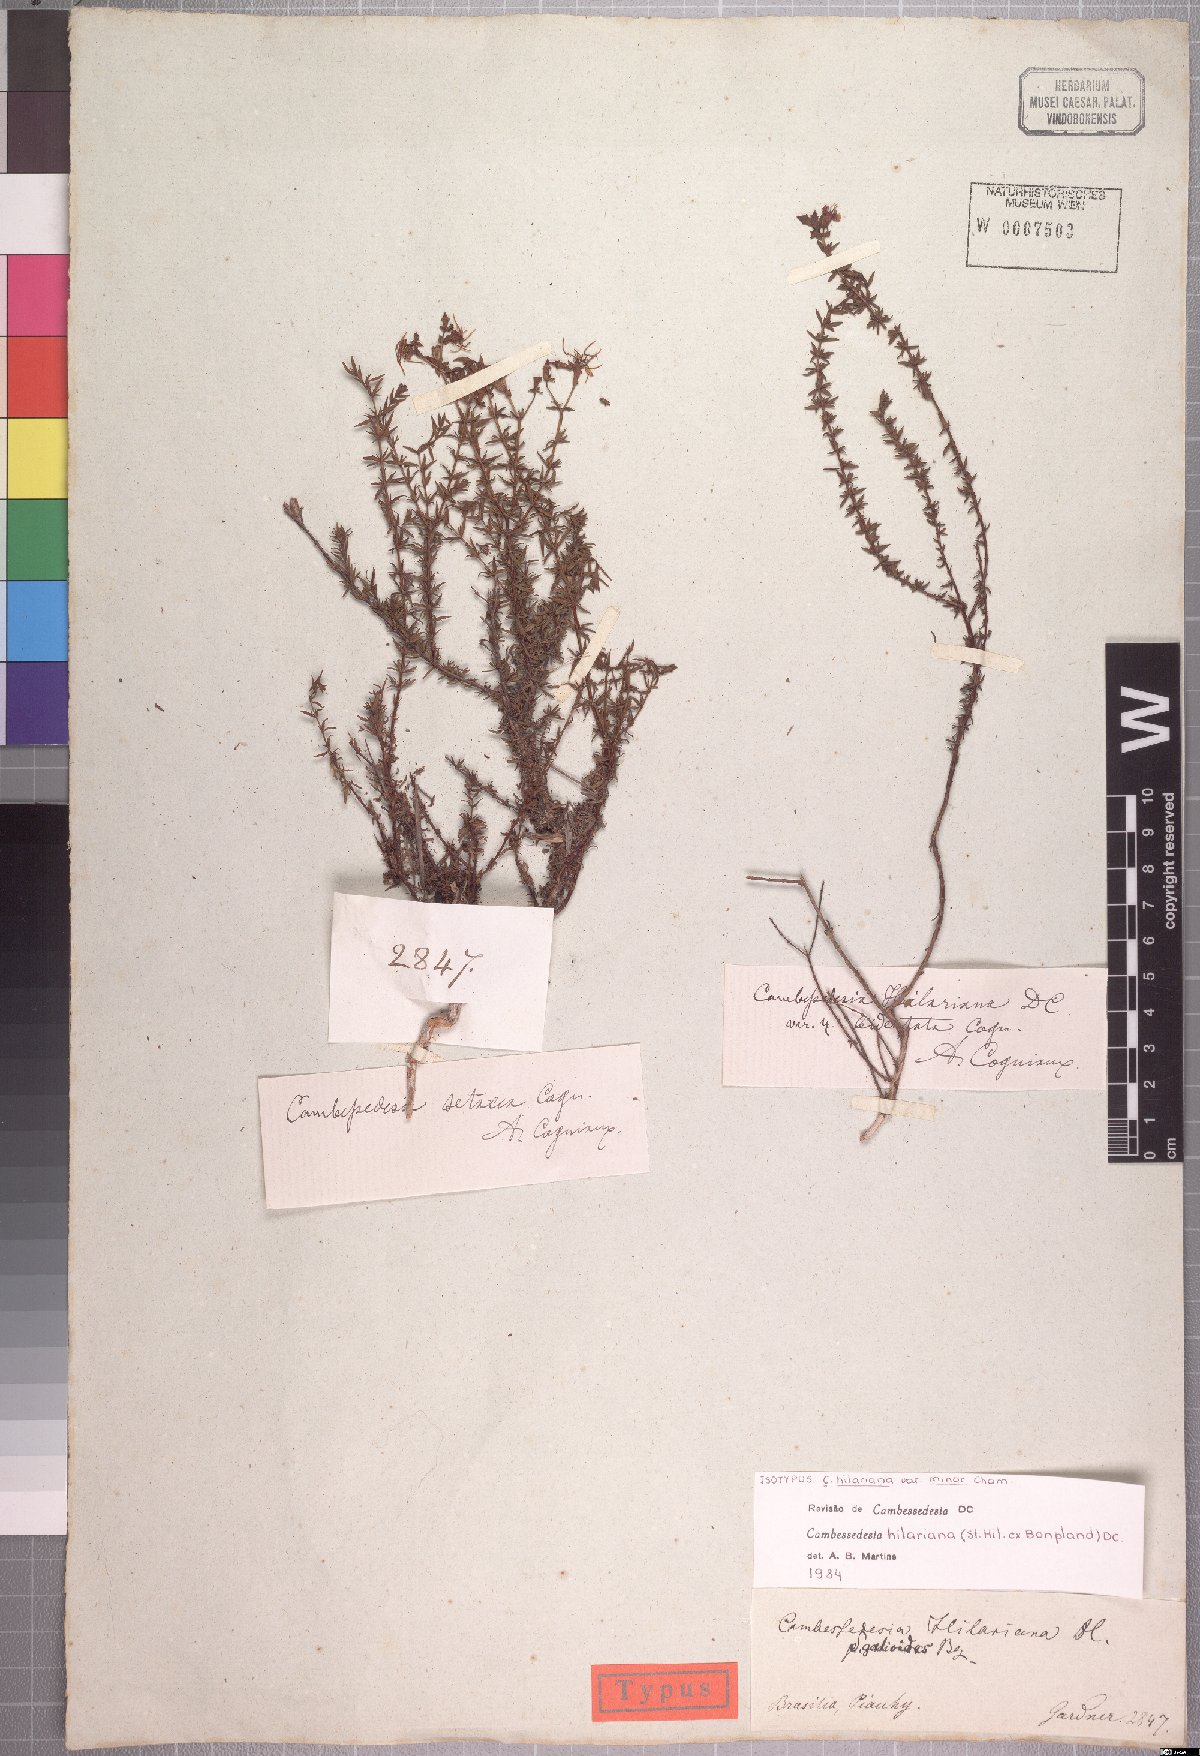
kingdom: Plantae
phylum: Tracheophyta
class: Magnoliopsida
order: Myrtales
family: Melastomataceae
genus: Cambessedesia
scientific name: Cambessedesia hilariana
